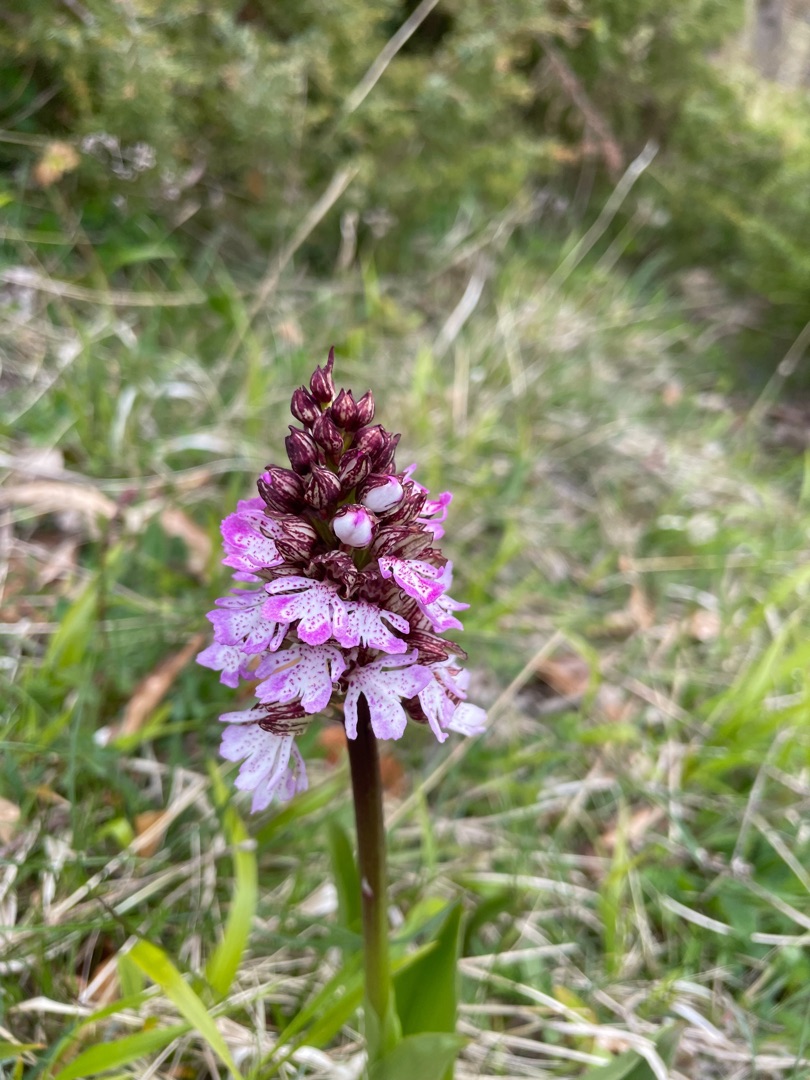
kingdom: Plantae
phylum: Tracheophyta
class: Liliopsida
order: Asparagales
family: Orchidaceae
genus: Orchis
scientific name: Orchis purpurea
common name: Stor gøgeurt
